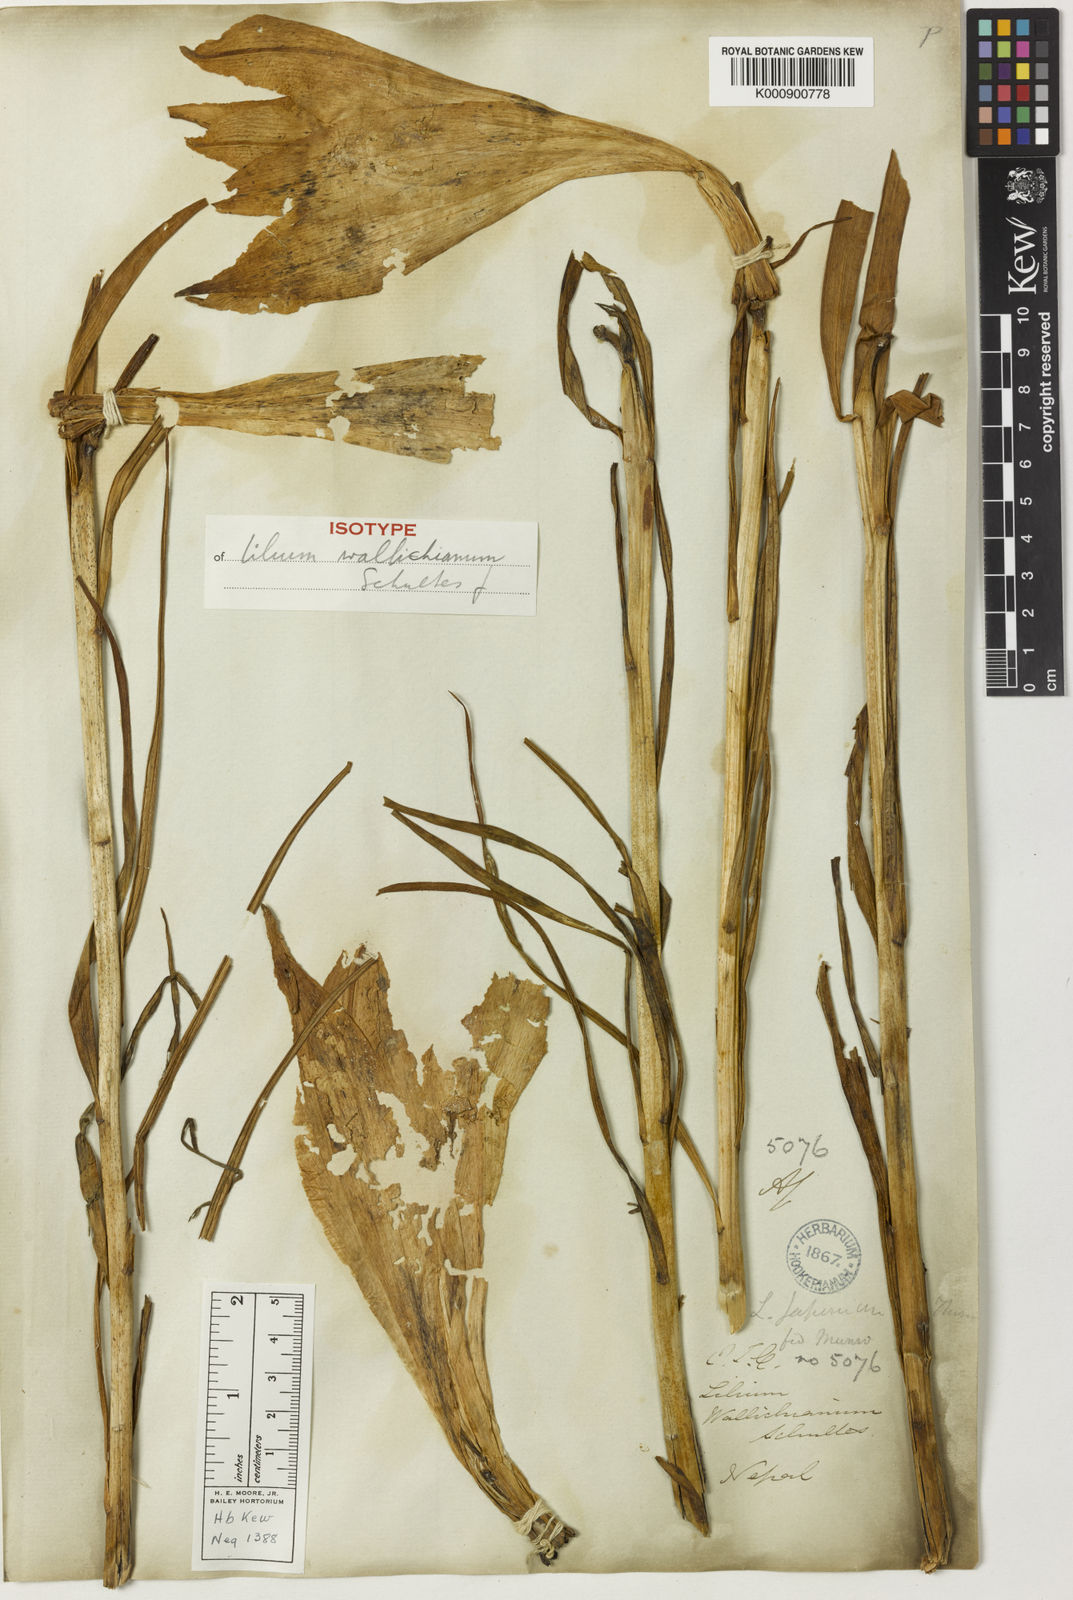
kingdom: Plantae
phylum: Tracheophyta
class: Liliopsida
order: Liliales
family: Liliaceae
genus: Lilium
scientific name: Lilium wallichianum
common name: Wallich's lily
